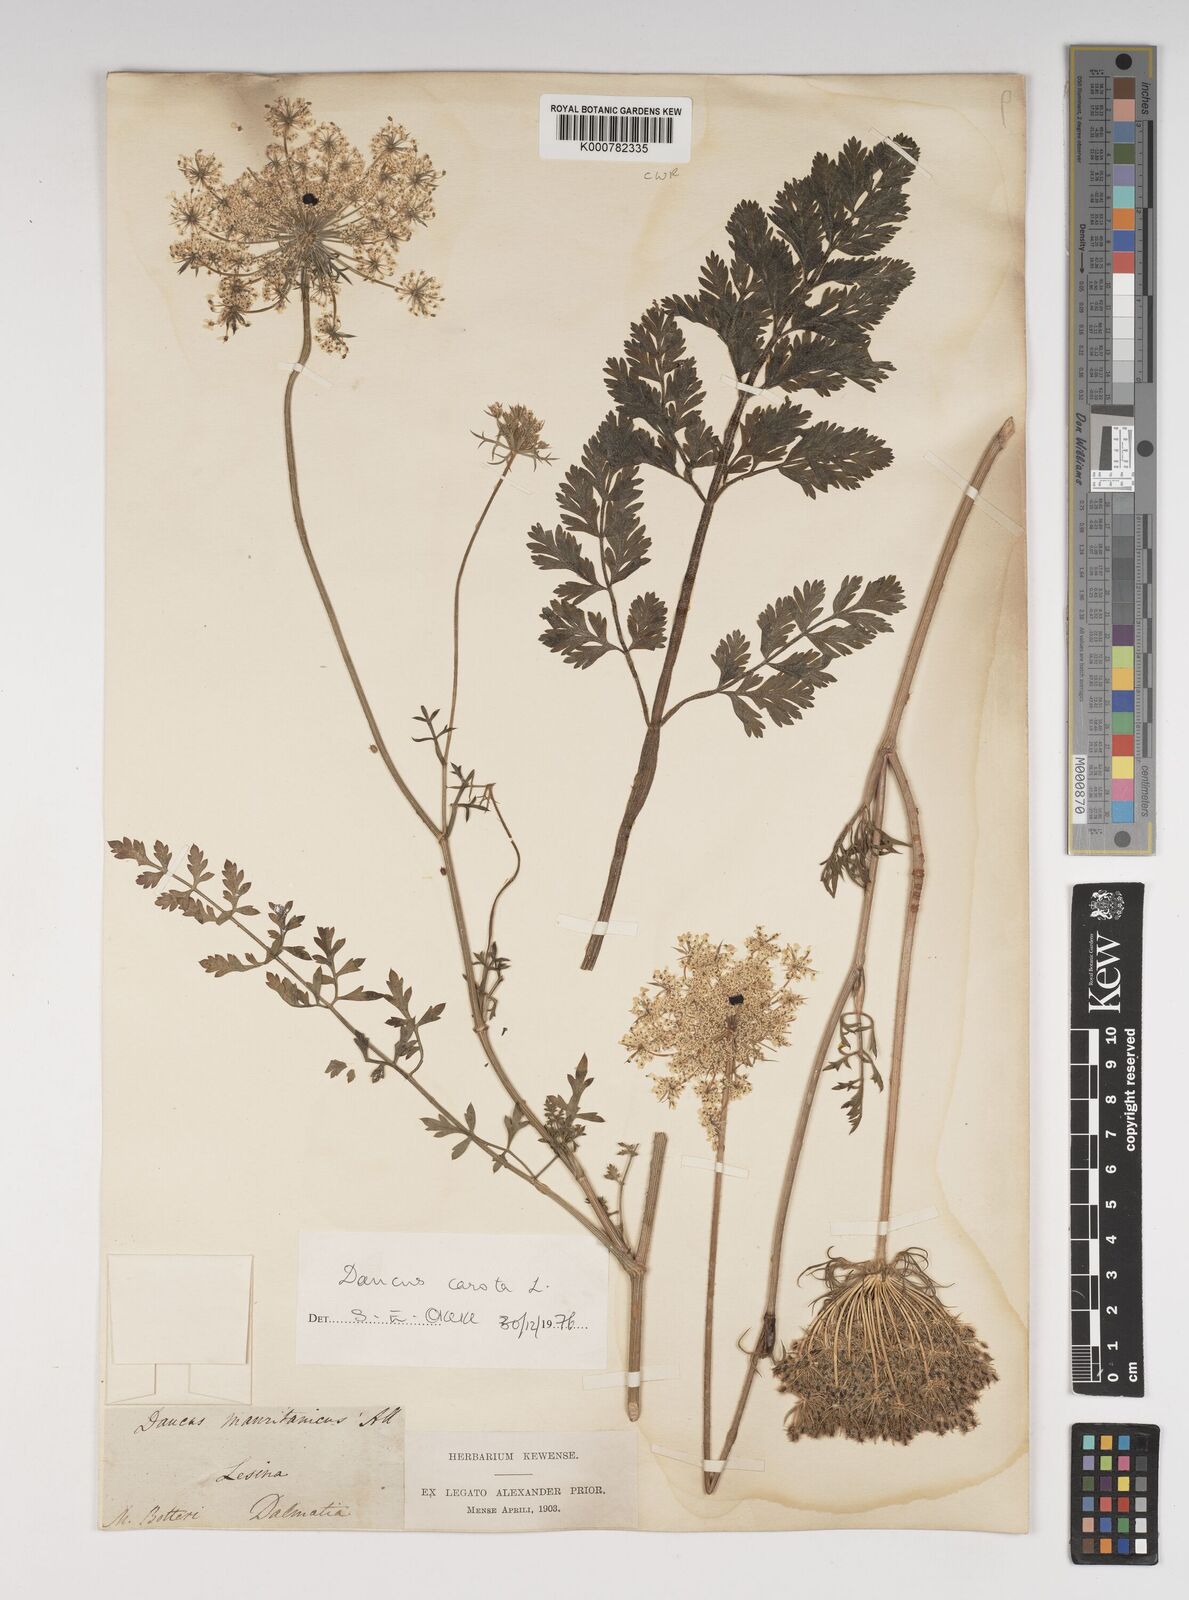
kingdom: Plantae
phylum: Tracheophyta
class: Magnoliopsida
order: Apiales
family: Apiaceae
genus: Daucus
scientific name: Daucus carota
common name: Wild carrot
